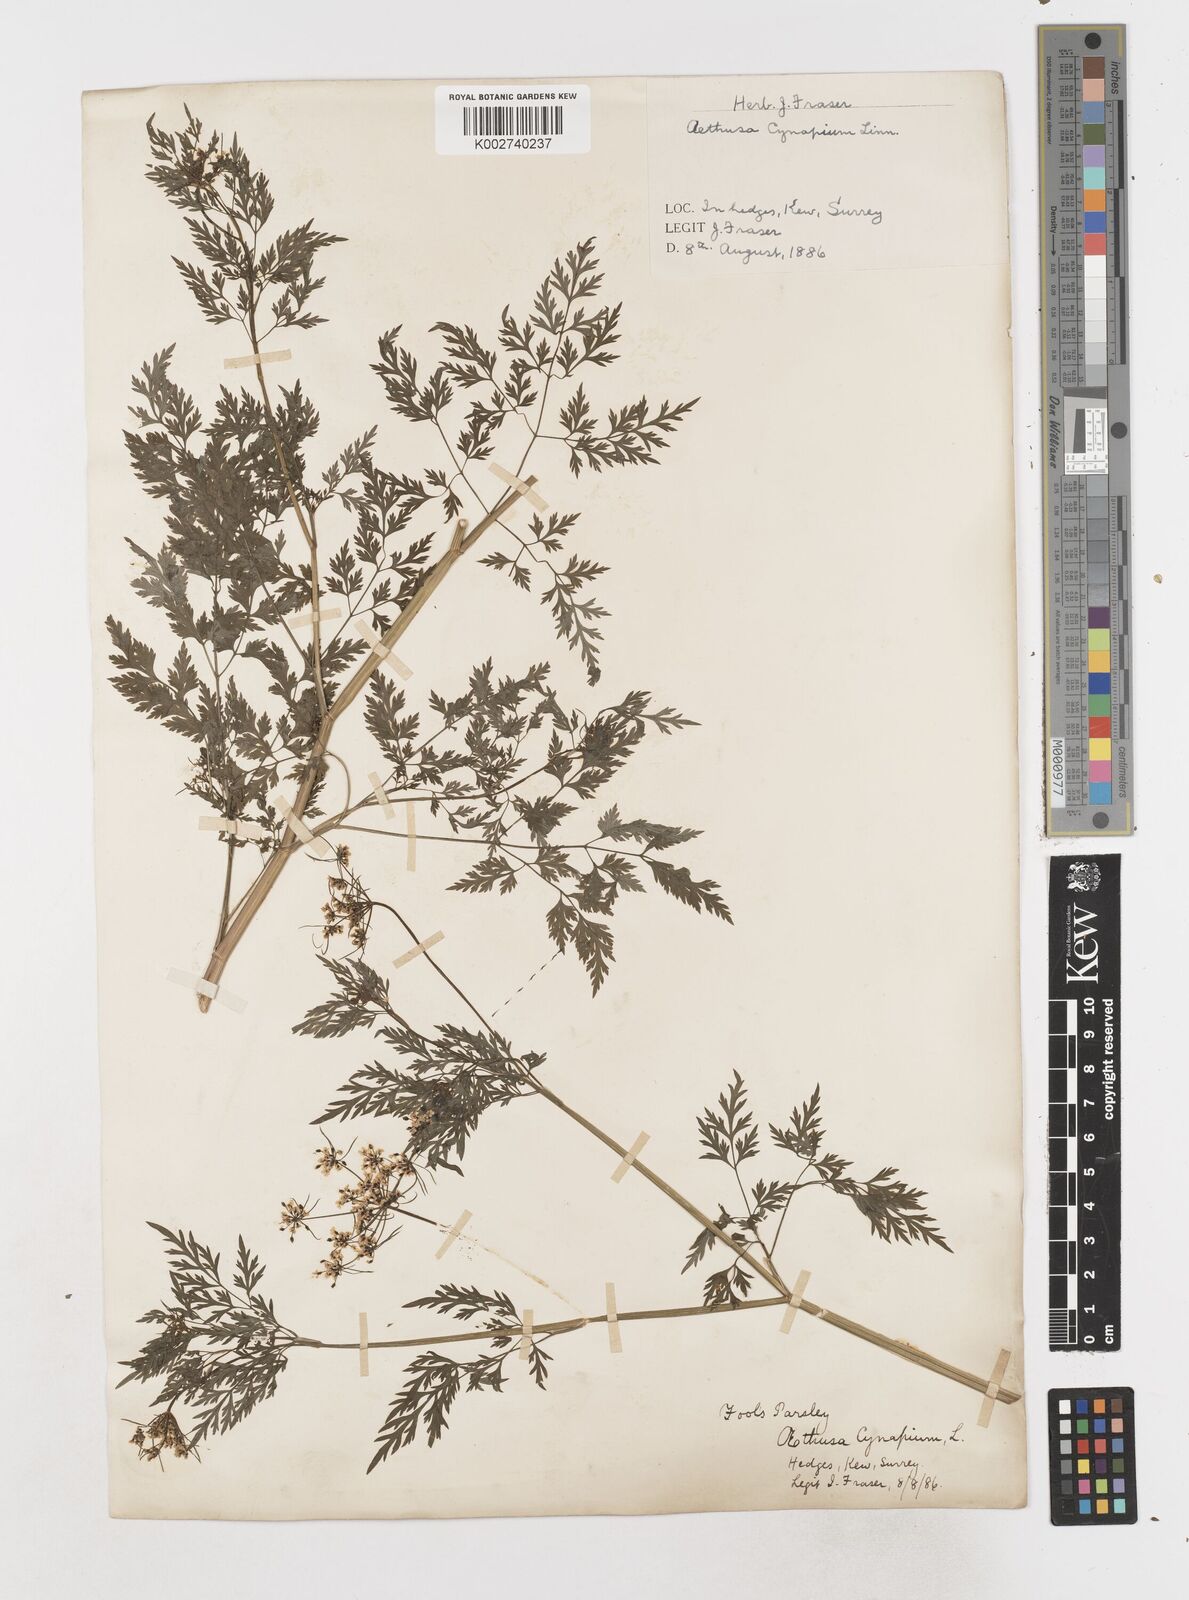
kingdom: Plantae
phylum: Tracheophyta
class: Magnoliopsida
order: Apiales
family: Apiaceae
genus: Aethusa
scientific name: Aethusa cynapium
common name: Fool's parsley
